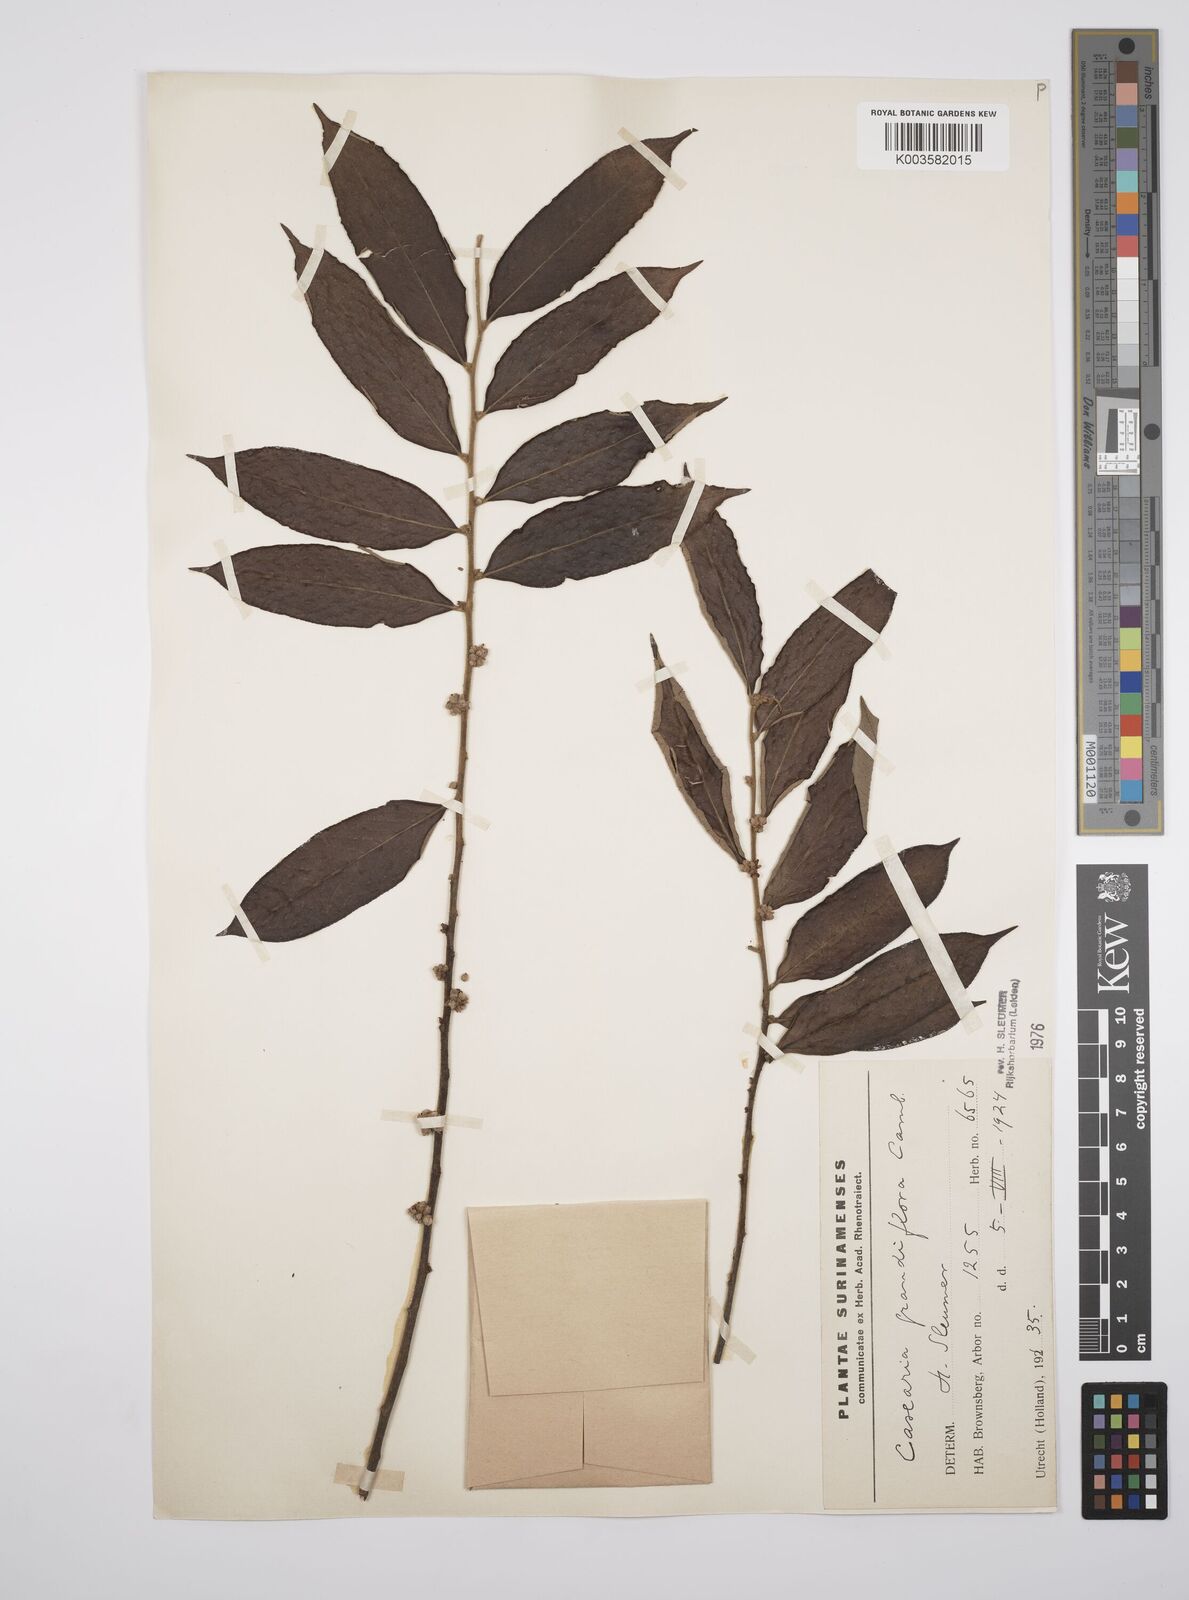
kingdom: Plantae
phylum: Tracheophyta
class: Magnoliopsida
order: Malpighiales
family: Salicaceae
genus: Casearia
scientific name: Casearia grandiflora
